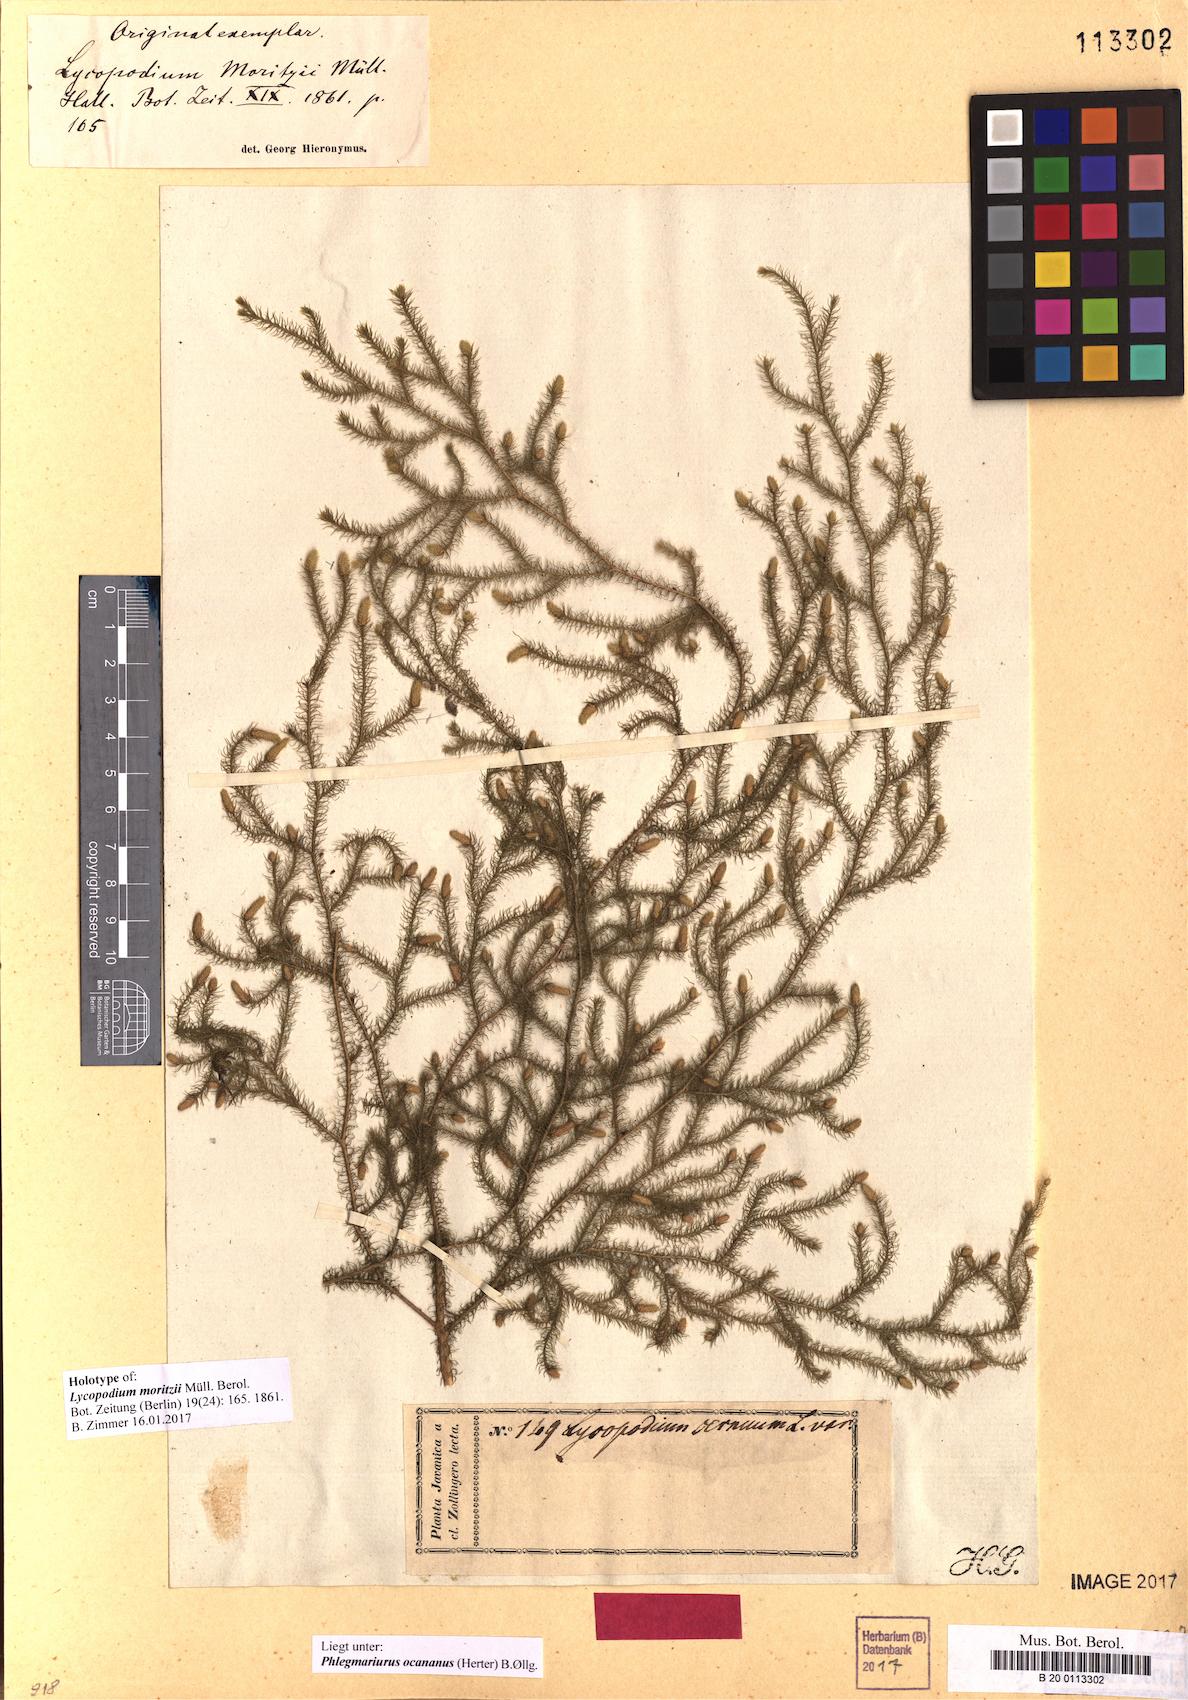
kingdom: Plantae
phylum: Tracheophyta
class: Lycopodiopsida
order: Lycopodiales
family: Lycopodiaceae
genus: Phlegmariurus
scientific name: Phlegmariurus ocananus
